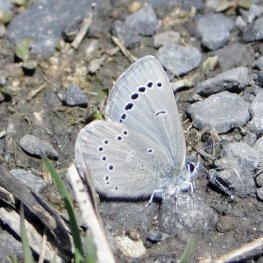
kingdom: Animalia
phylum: Arthropoda
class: Insecta
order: Lepidoptera
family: Lycaenidae
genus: Glaucopsyche
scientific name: Glaucopsyche lygdamus
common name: Silvery Blue
